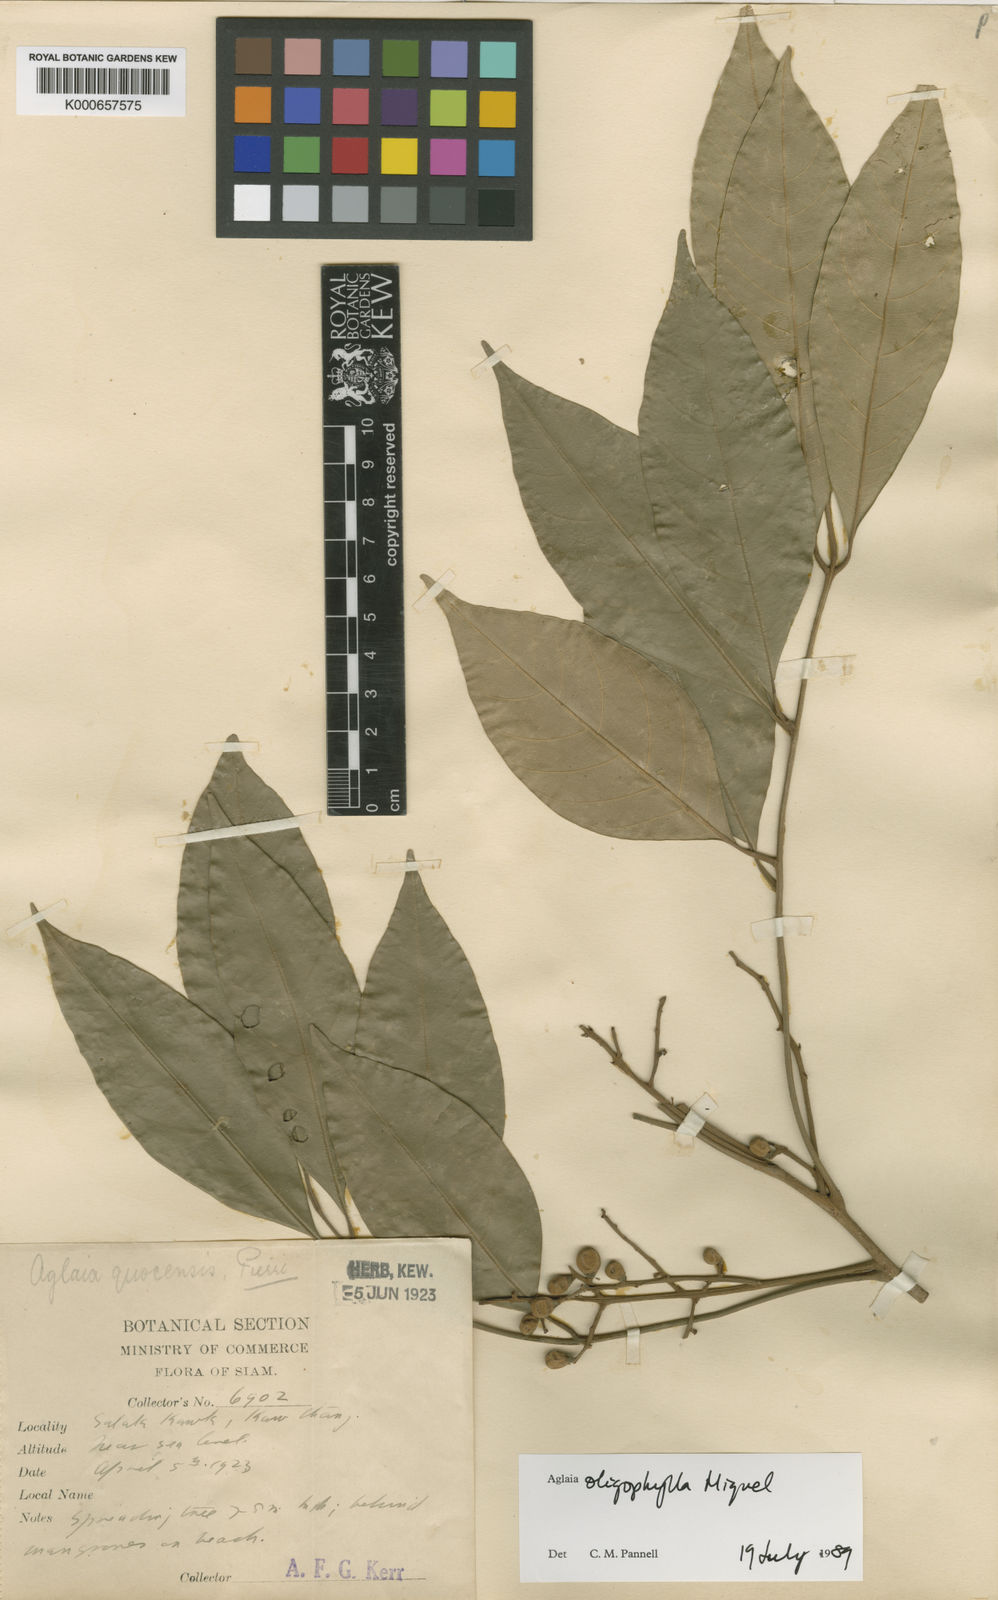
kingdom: Plantae
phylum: Tracheophyta
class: Magnoliopsida
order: Sapindales
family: Meliaceae
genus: Aglaia
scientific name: Aglaia oligophylla
